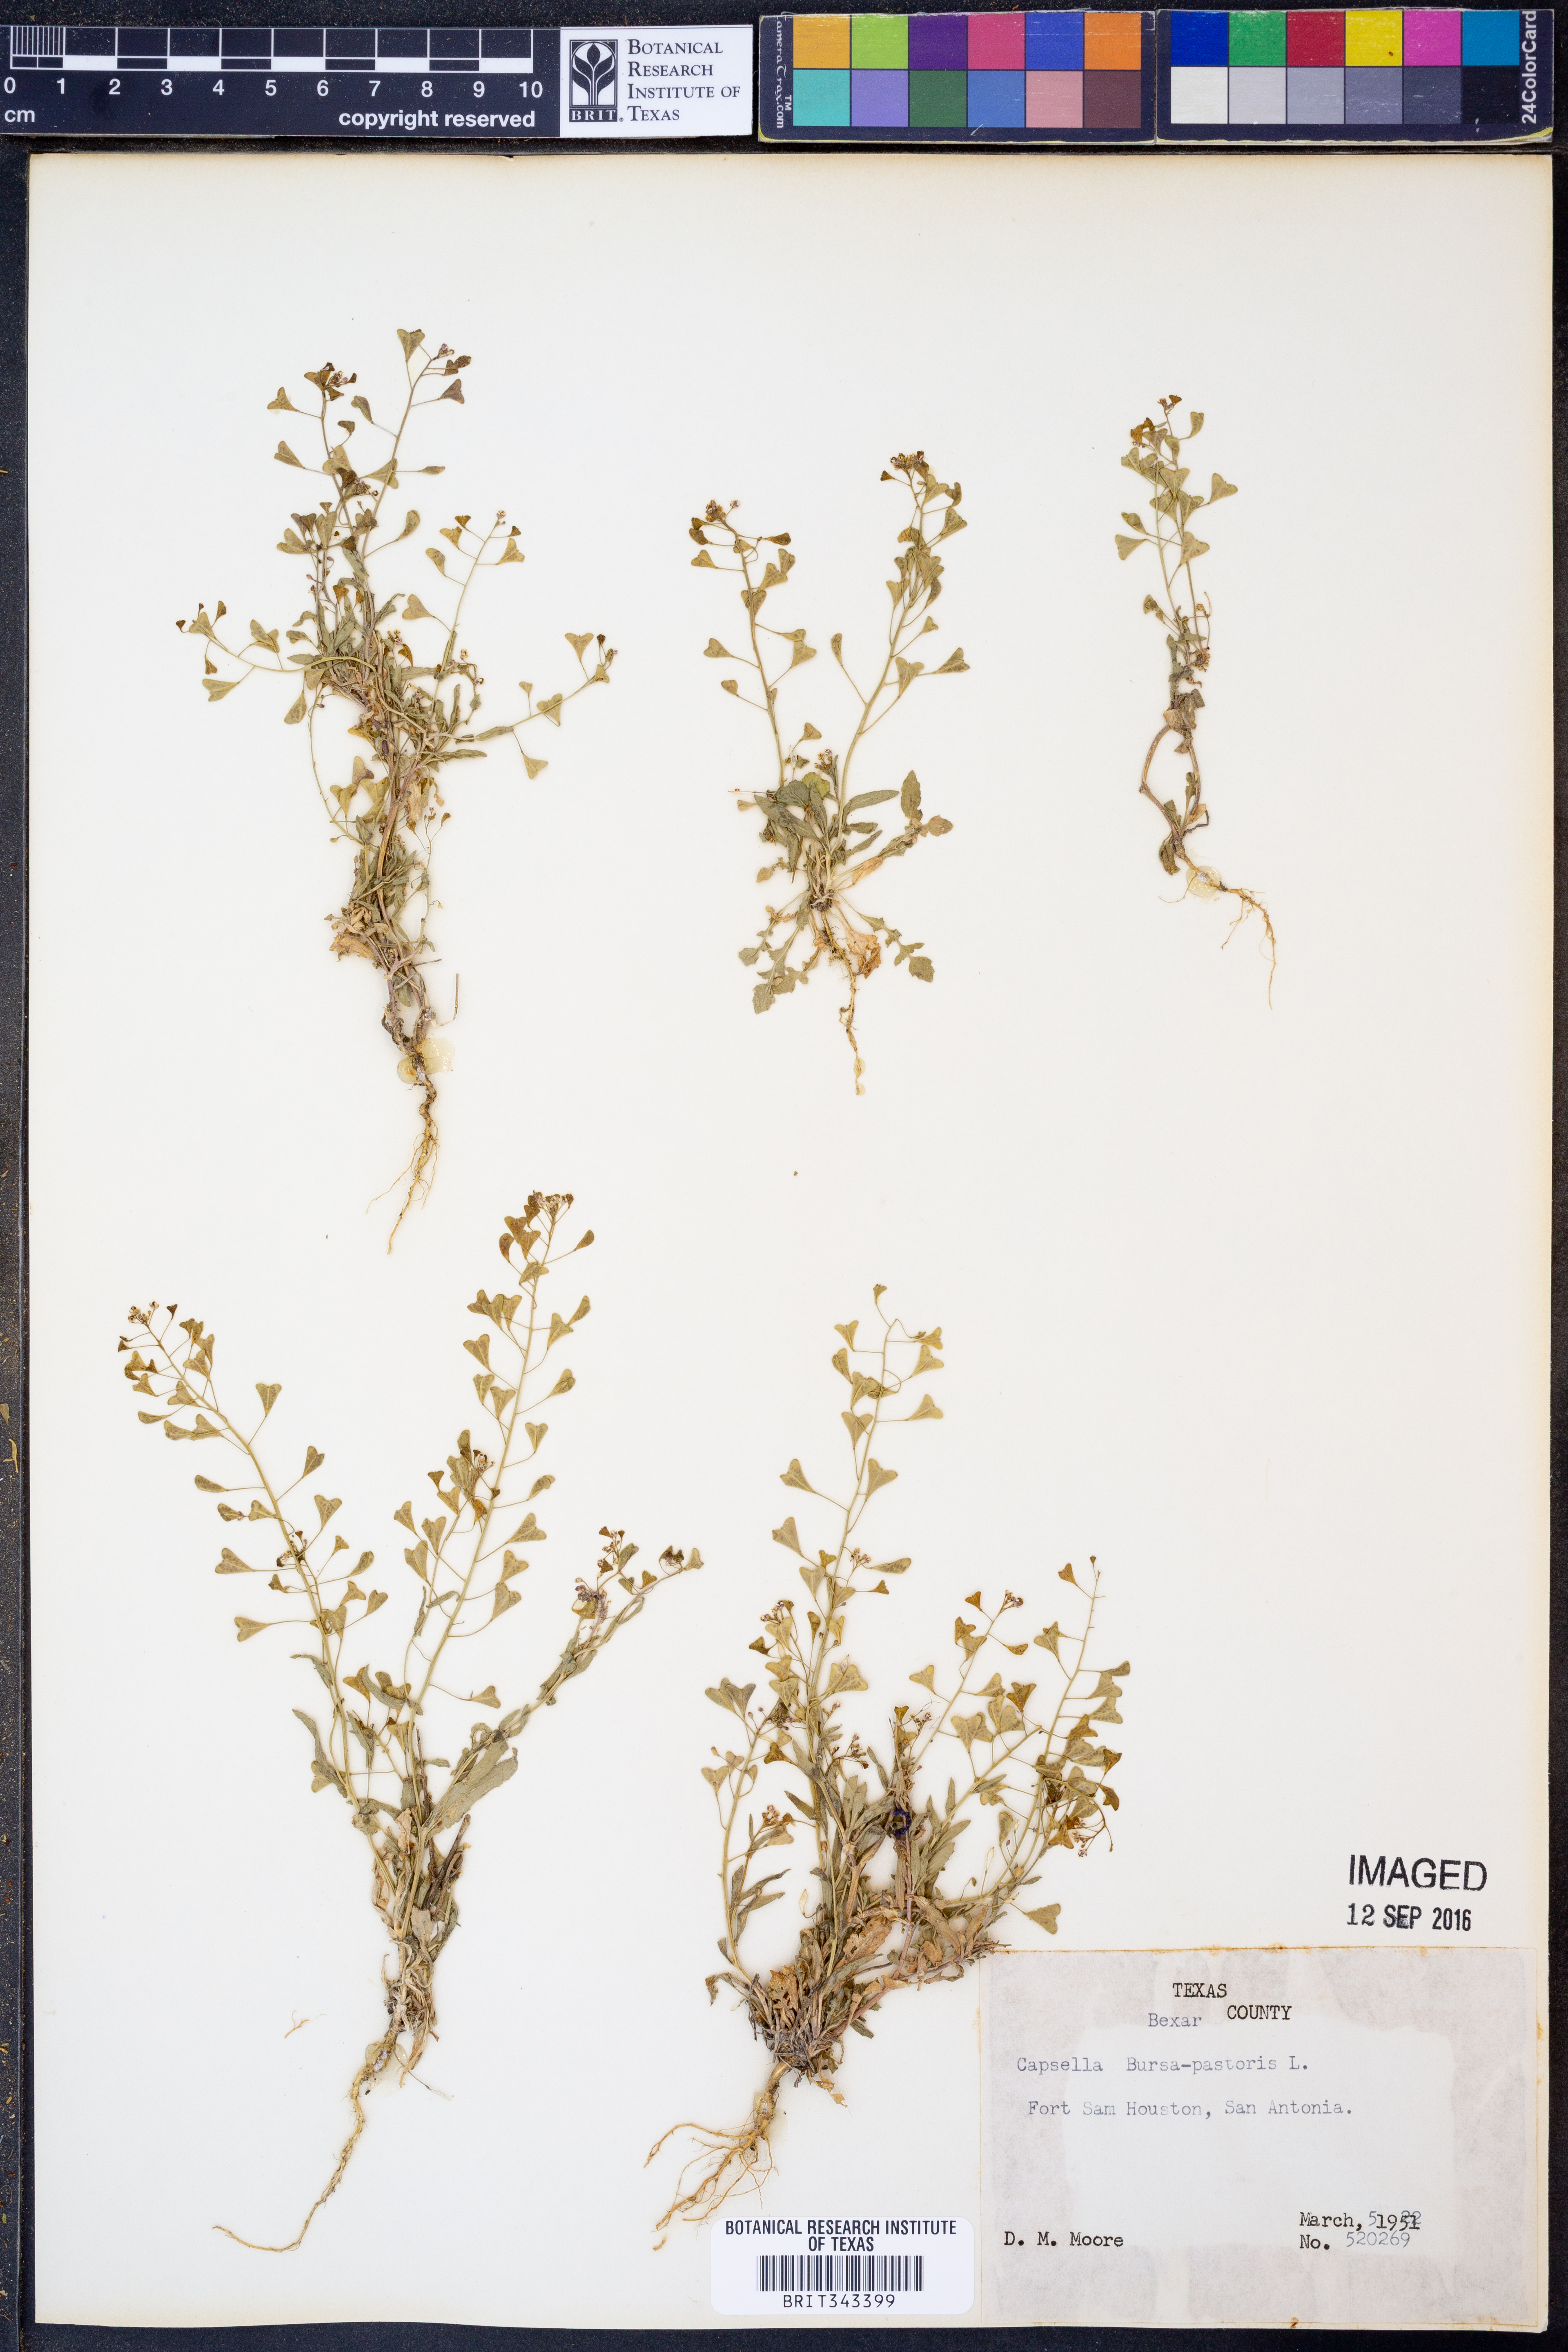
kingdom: Plantae
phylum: Tracheophyta
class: Magnoliopsida
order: Brassicales
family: Brassicaceae
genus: Capsella
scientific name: Capsella bursa-pastoris
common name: Shepherd's purse
